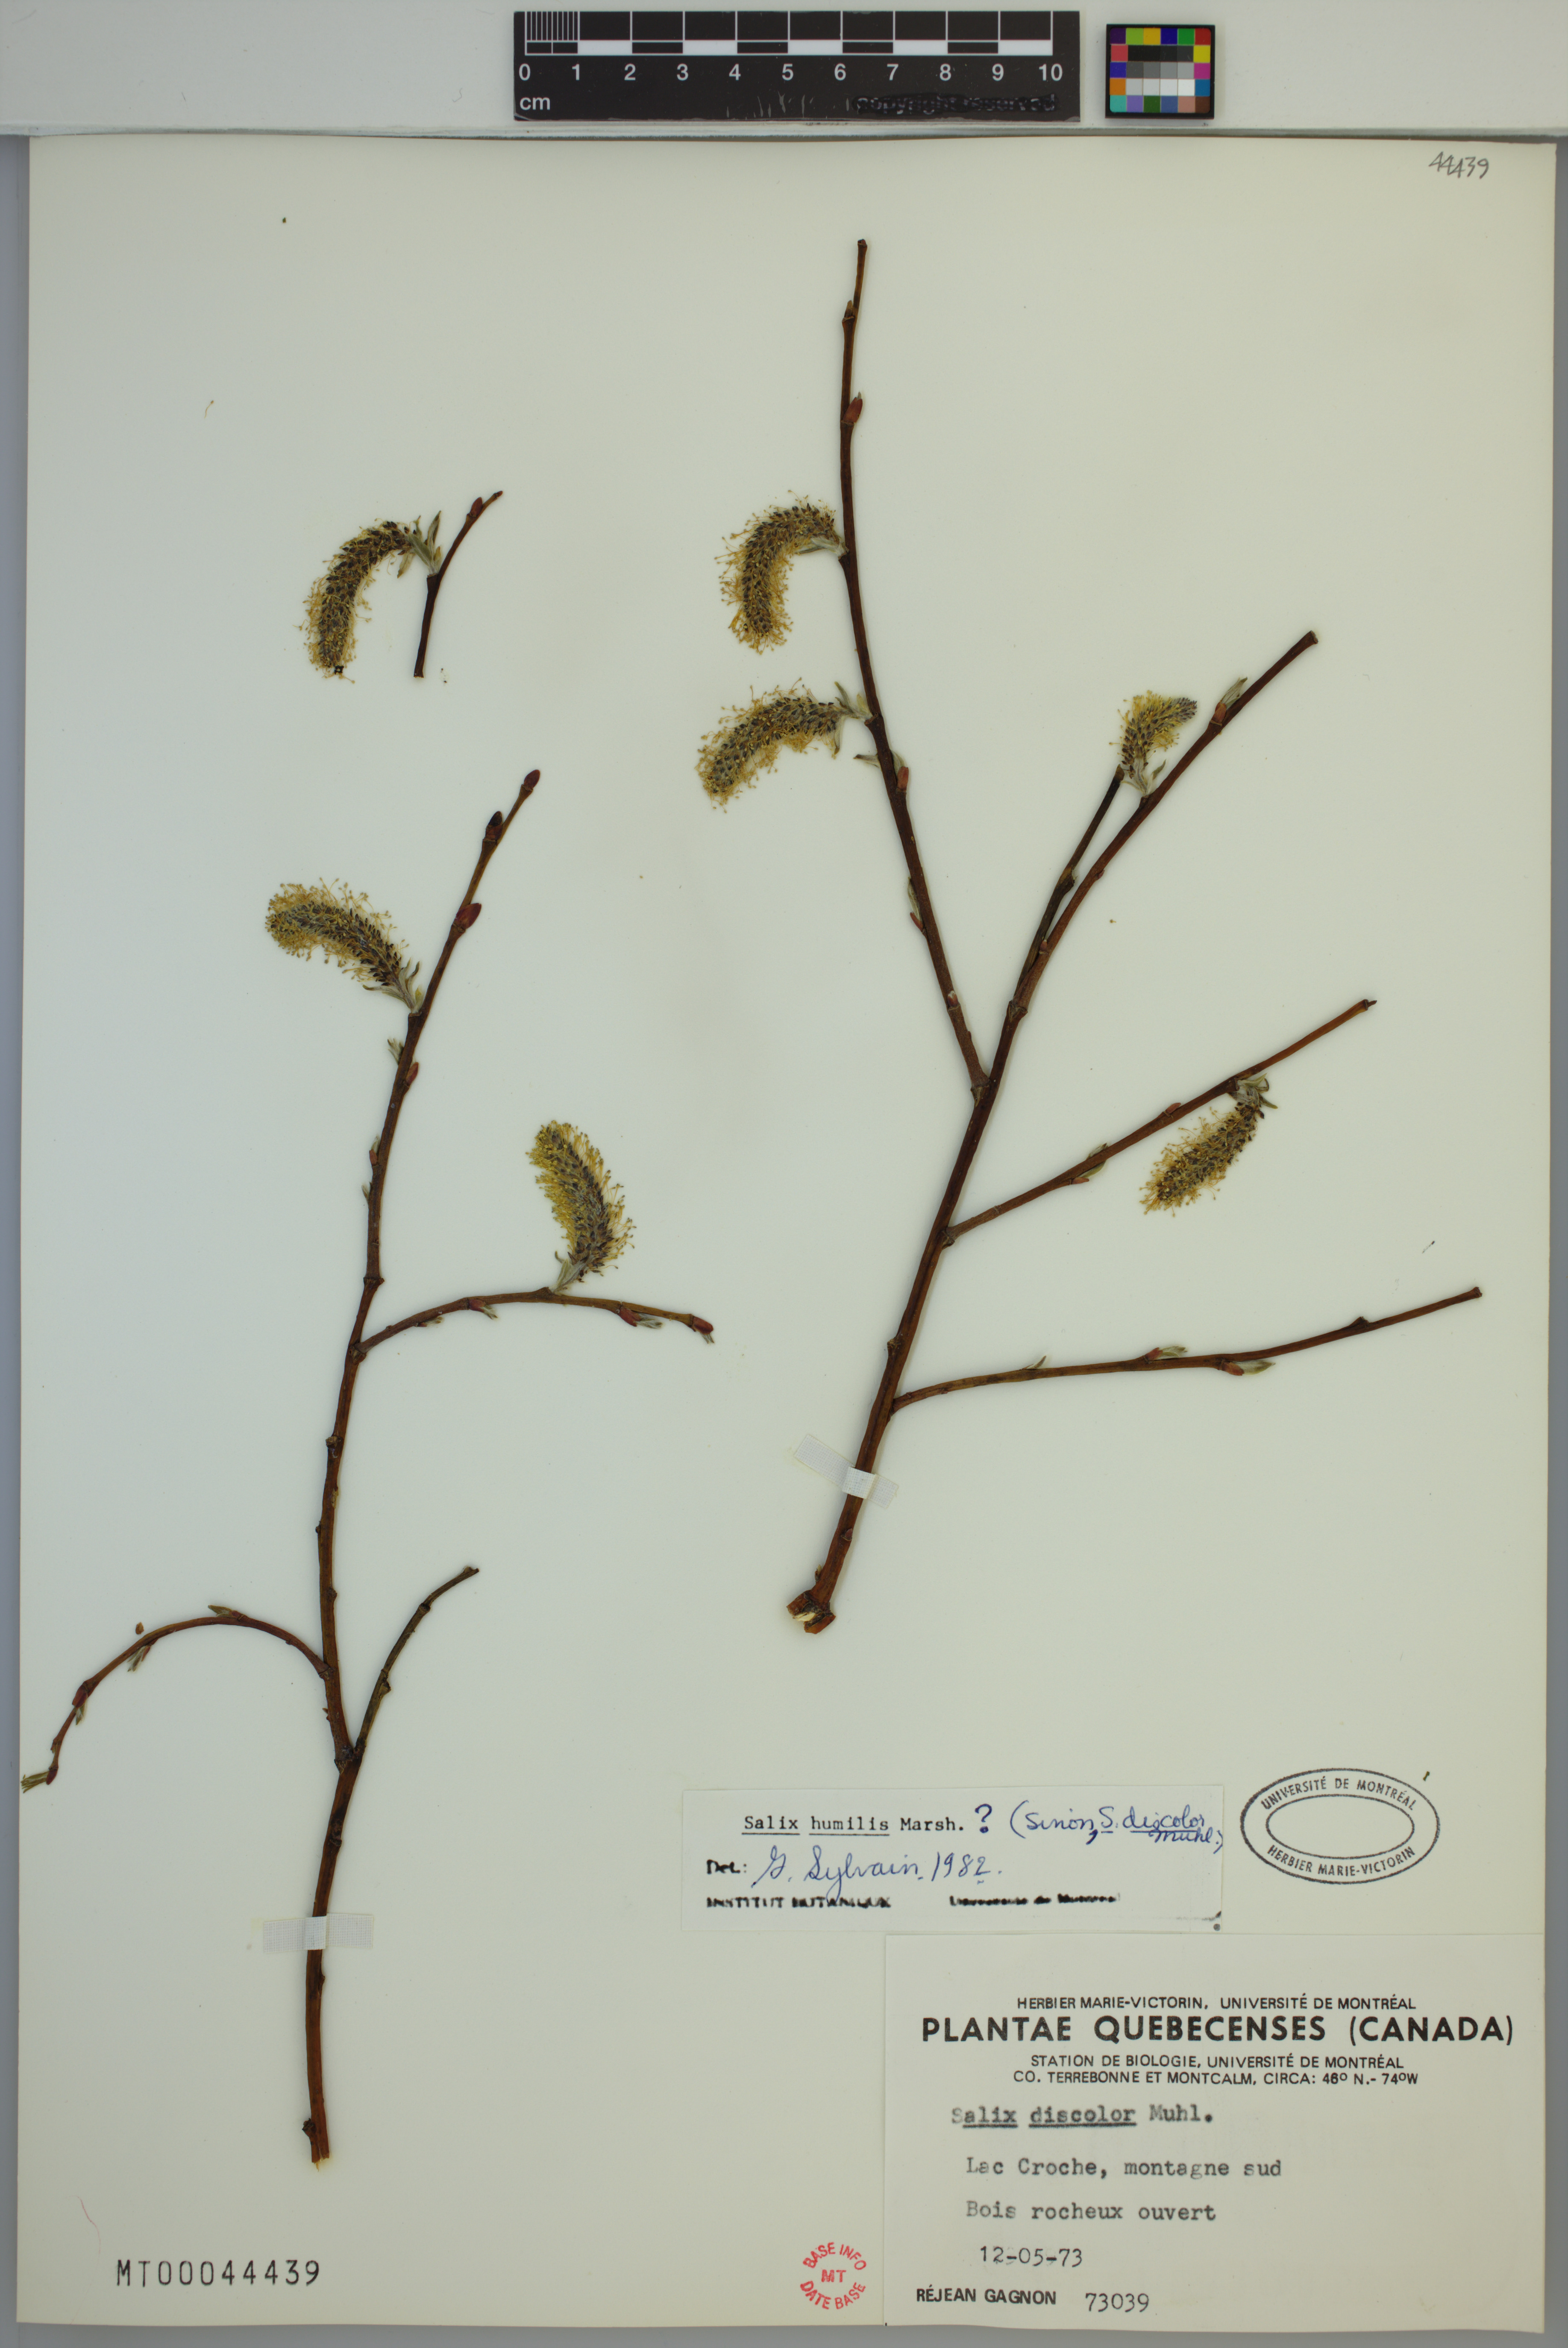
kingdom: Plantae
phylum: Tracheophyta
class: Magnoliopsida
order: Malpighiales
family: Salicaceae
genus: Salix
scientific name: Salix humilis
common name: Prairie willow
